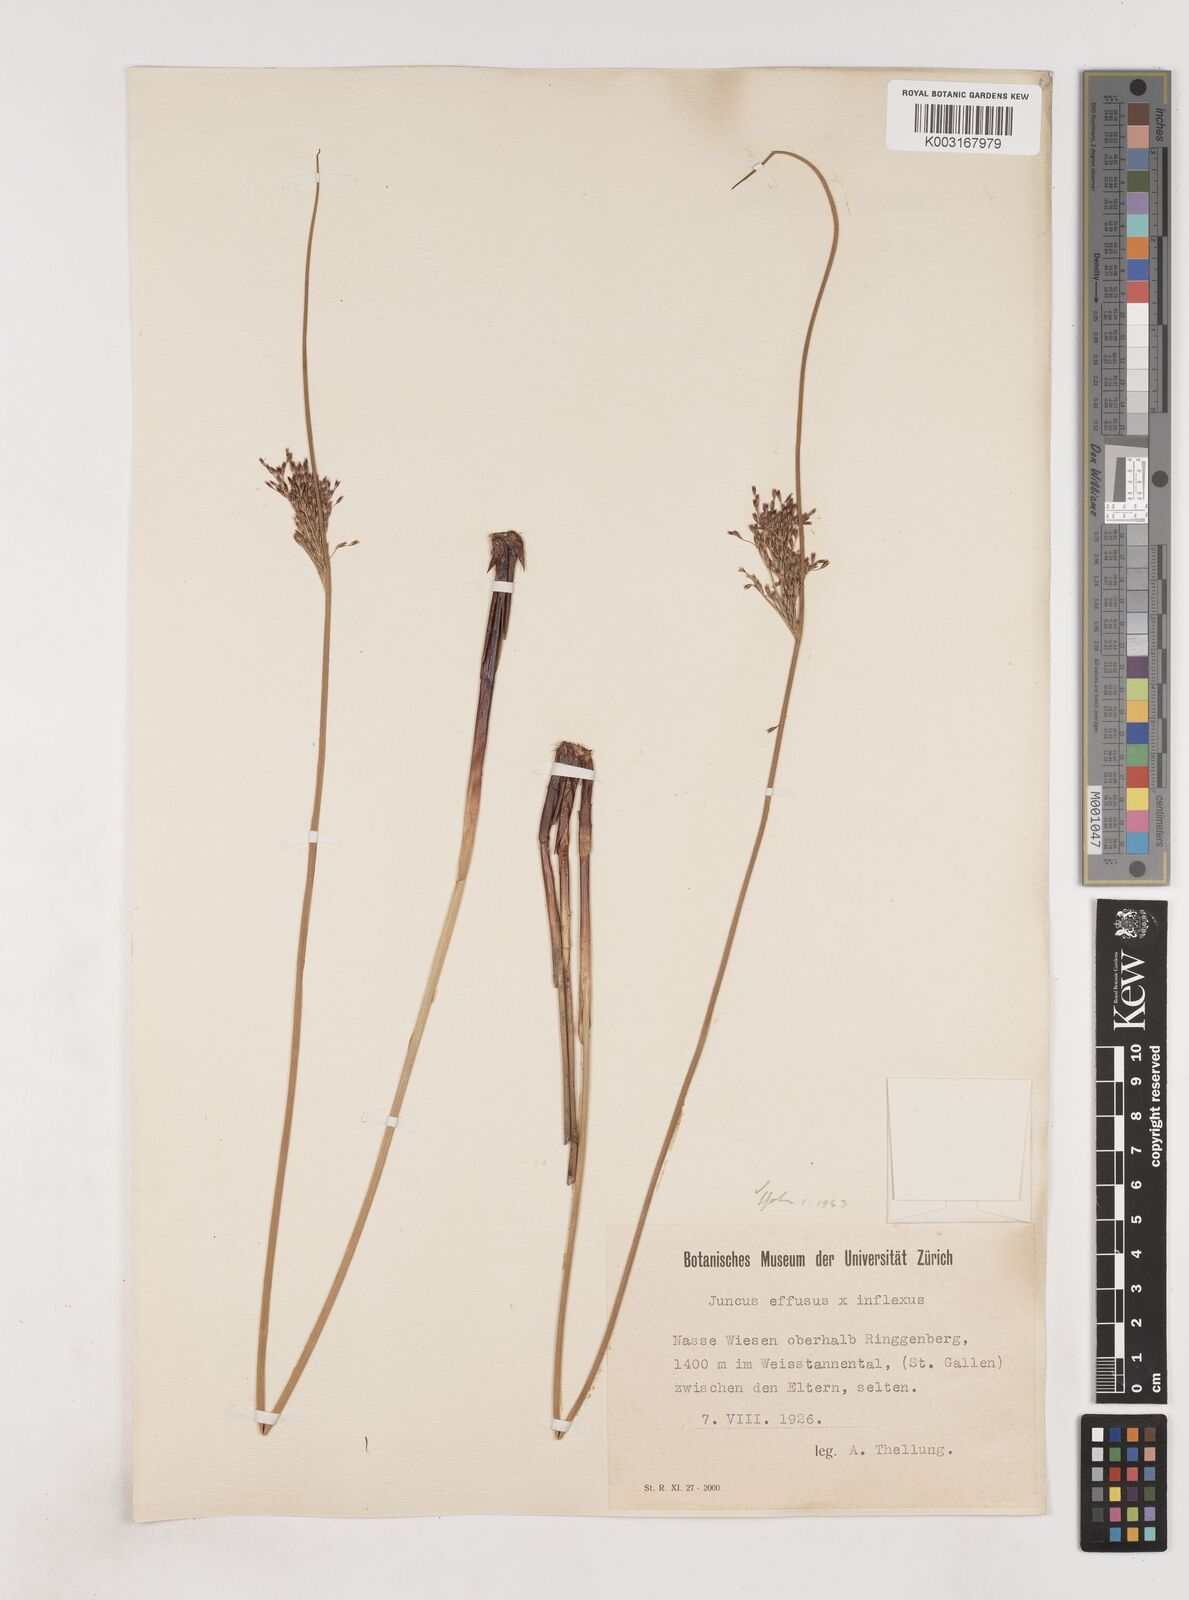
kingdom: Plantae
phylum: Tracheophyta
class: Liliopsida
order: Poales
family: Juncaceae
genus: Juncus
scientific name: Juncus effusus
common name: Soft rush
